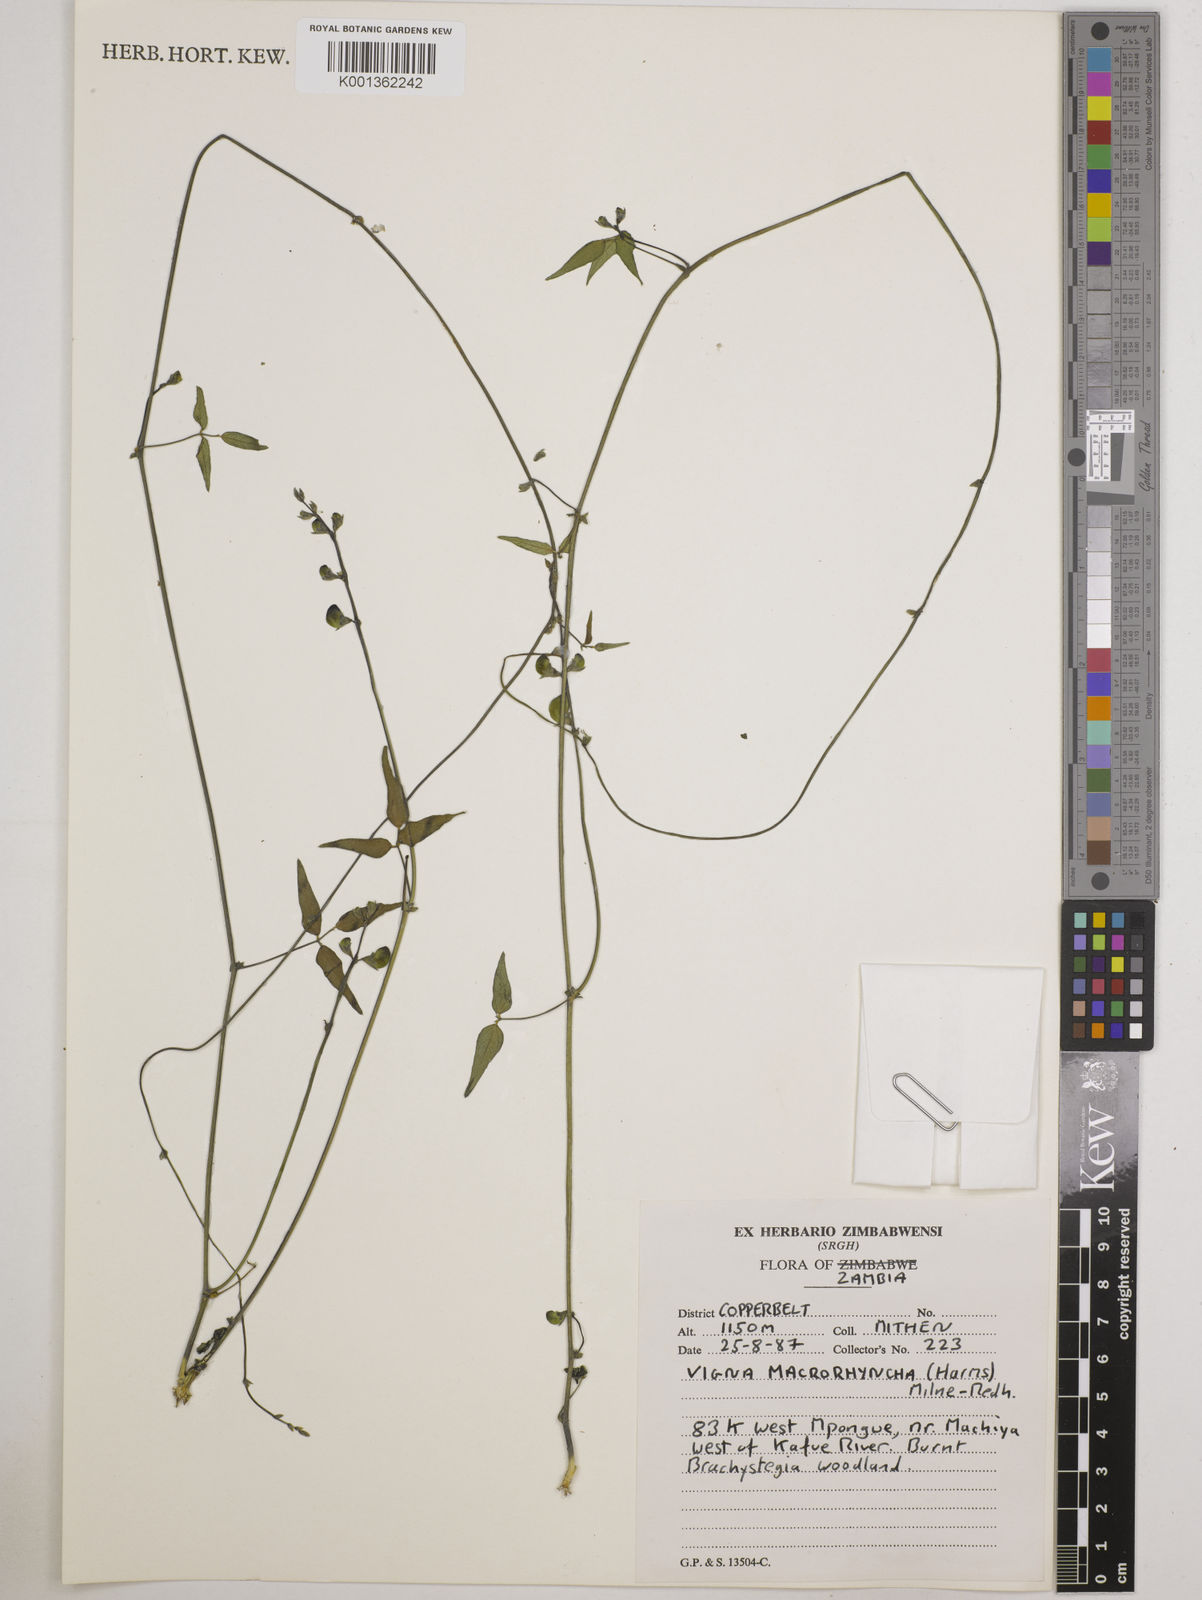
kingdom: Plantae
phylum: Tracheophyta
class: Magnoliopsida
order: Fabales
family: Fabaceae
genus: Wajira
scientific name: Wajira grahamiana
